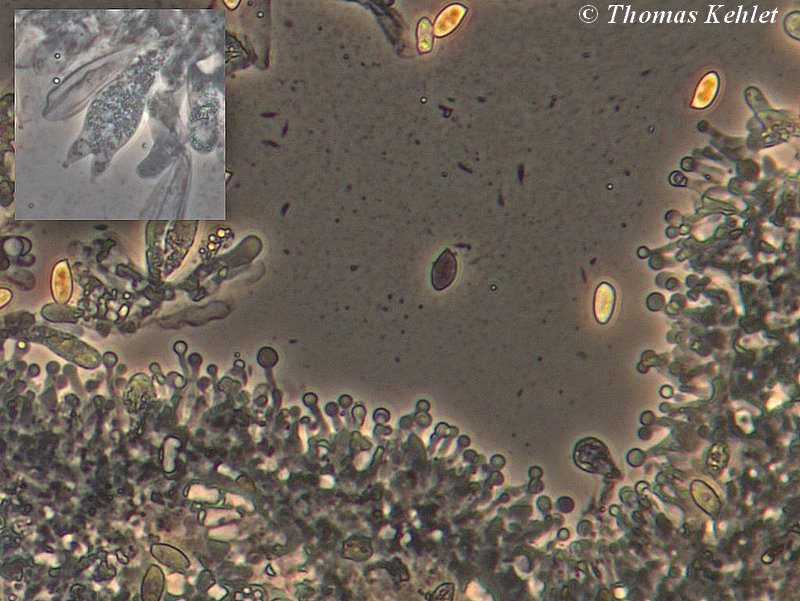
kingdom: Fungi
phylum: Basidiomycota
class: Agaricomycetes
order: Agaricales
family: Hymenogastraceae
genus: Galerina
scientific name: Galerina subclavata
